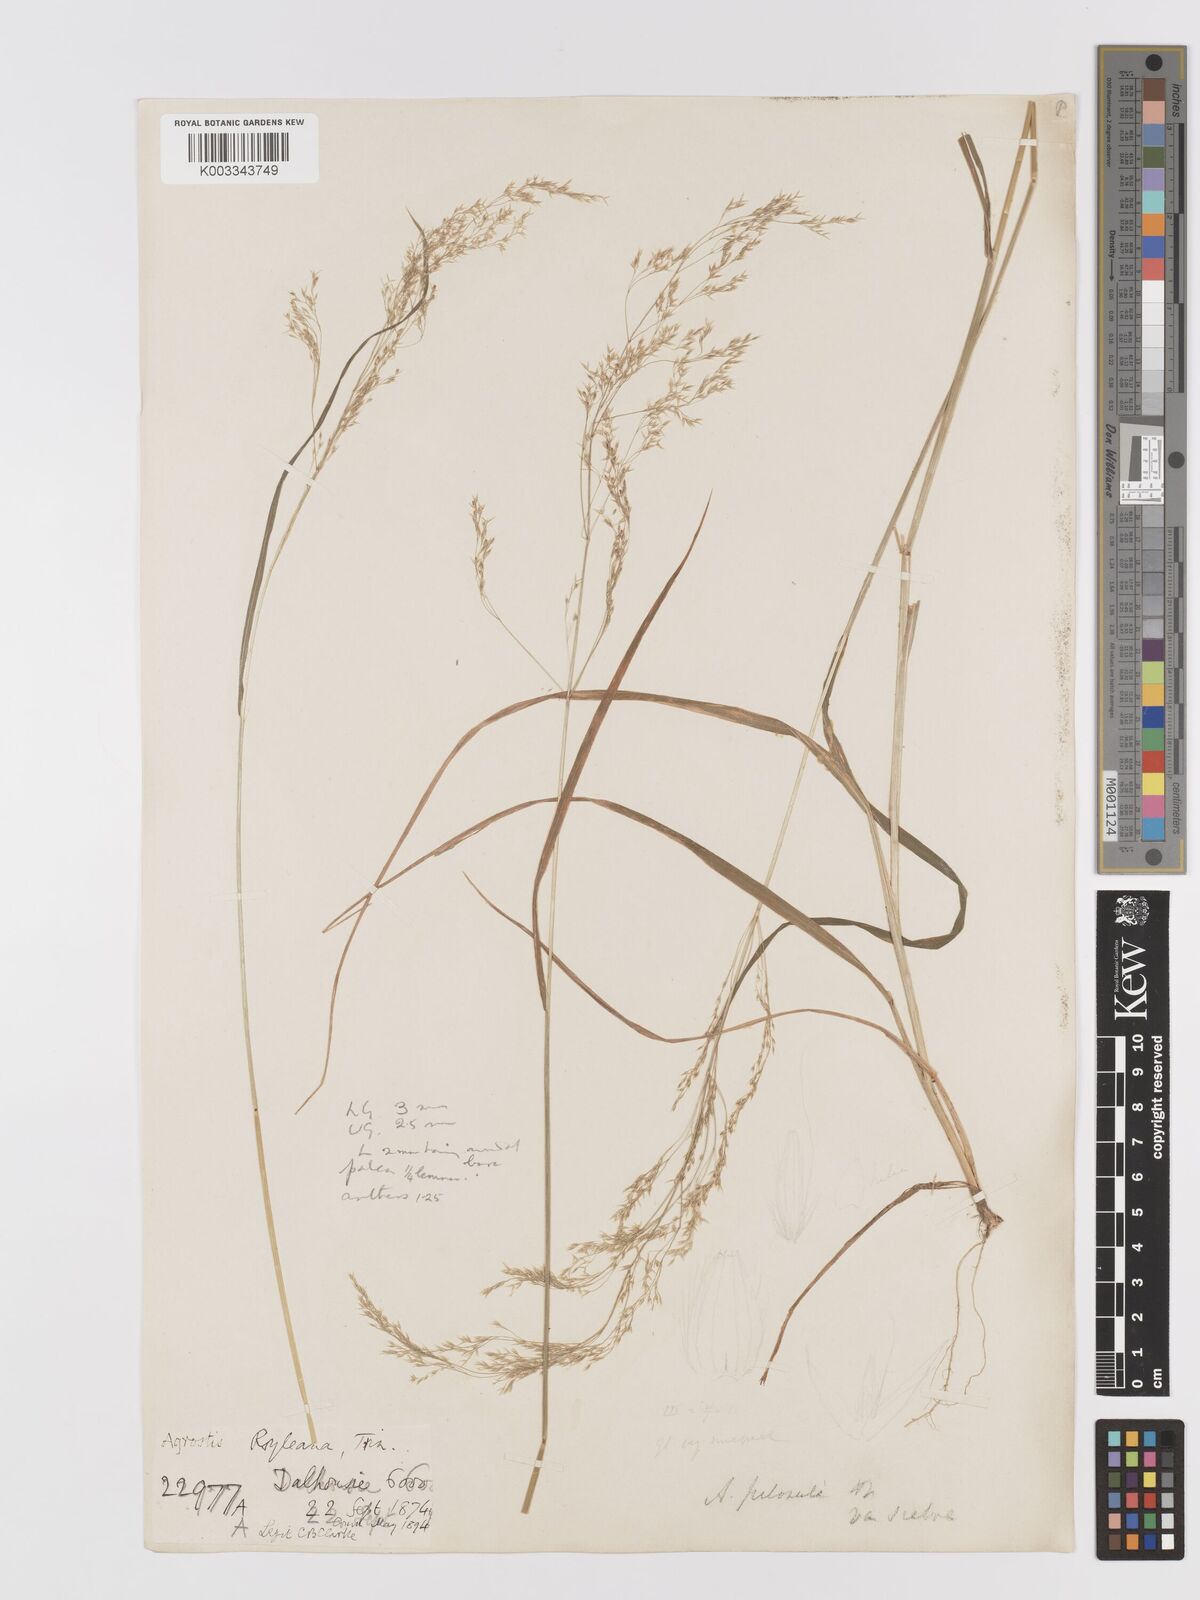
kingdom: Plantae
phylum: Tracheophyta
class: Liliopsida
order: Poales
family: Poaceae
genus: Agrostis
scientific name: Agrostis pilosula
